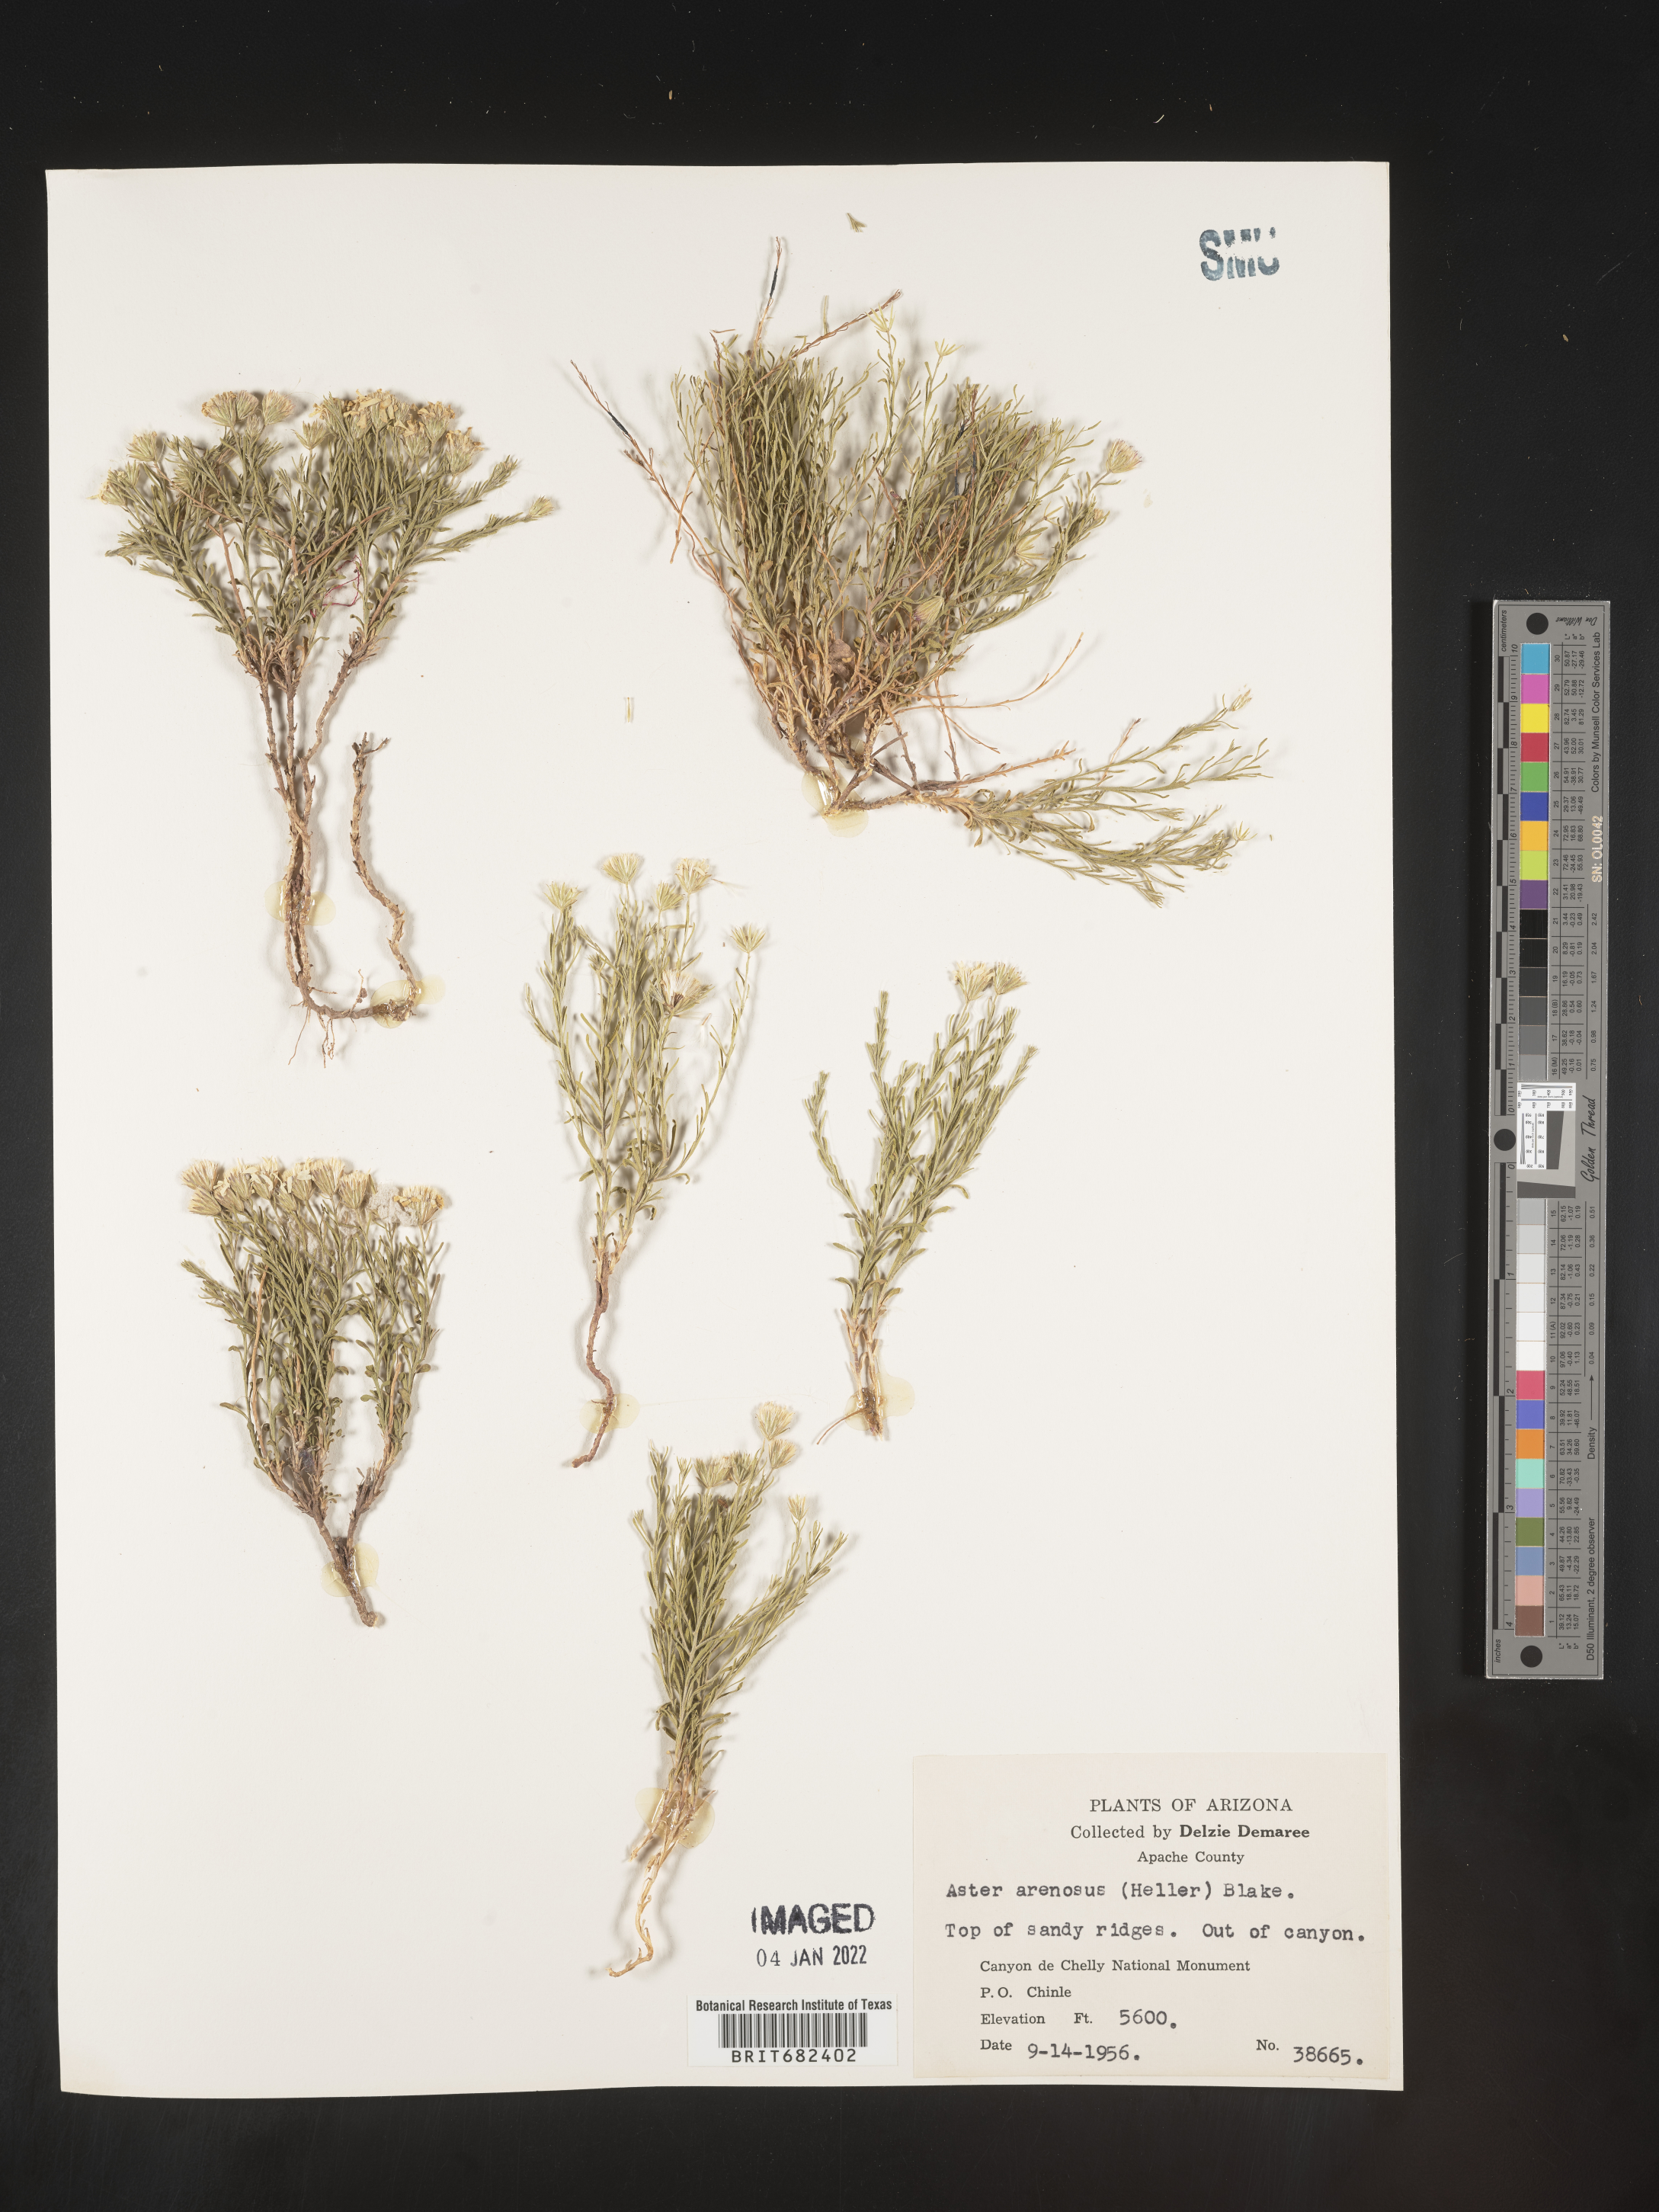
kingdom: Plantae
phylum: Tracheophyta
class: Magnoliopsida
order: Asterales
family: Asteraceae
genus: Aster
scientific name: Aster
